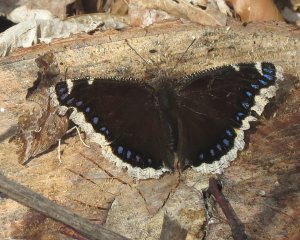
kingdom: Animalia
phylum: Arthropoda
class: Insecta
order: Lepidoptera
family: Nymphalidae
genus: Nymphalis
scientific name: Nymphalis antiopa
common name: Mourning Cloak
